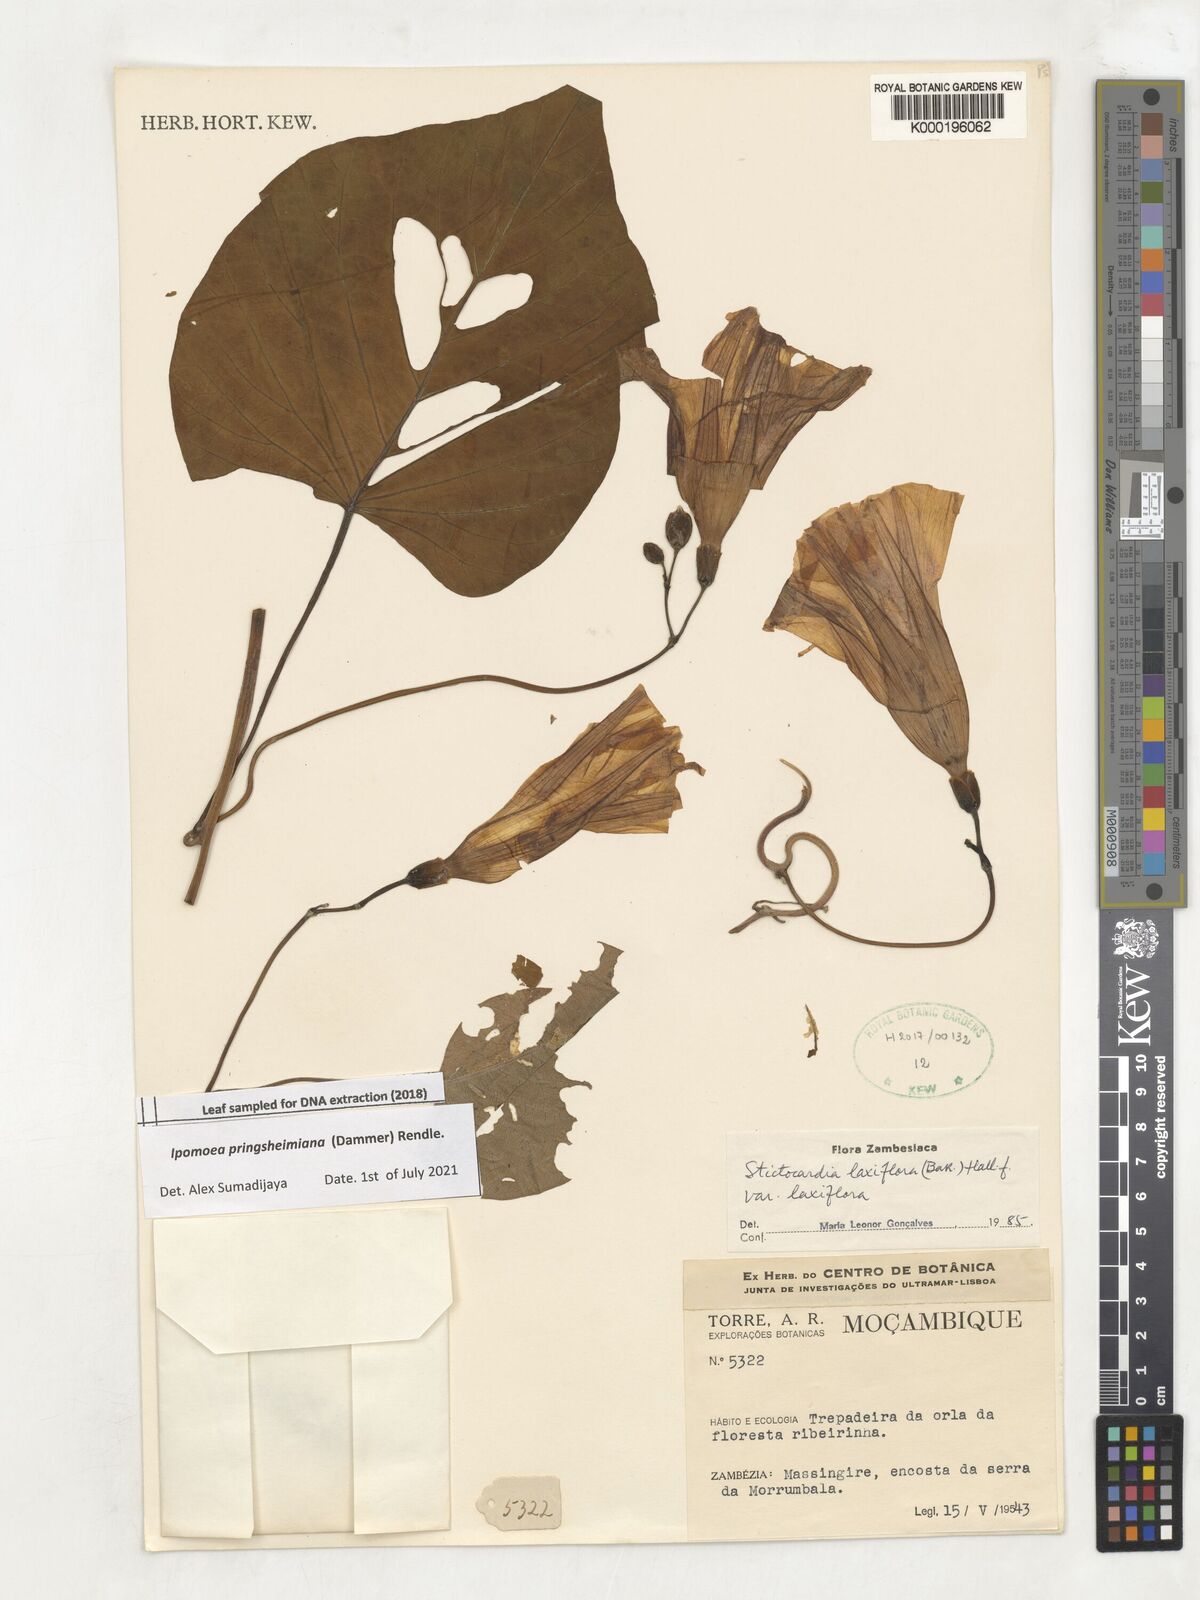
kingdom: Plantae
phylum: Tracheophyta
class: Magnoliopsida
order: Solanales
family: Convolvulaceae
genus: Stictocardia
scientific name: Stictocardia laxiflora
